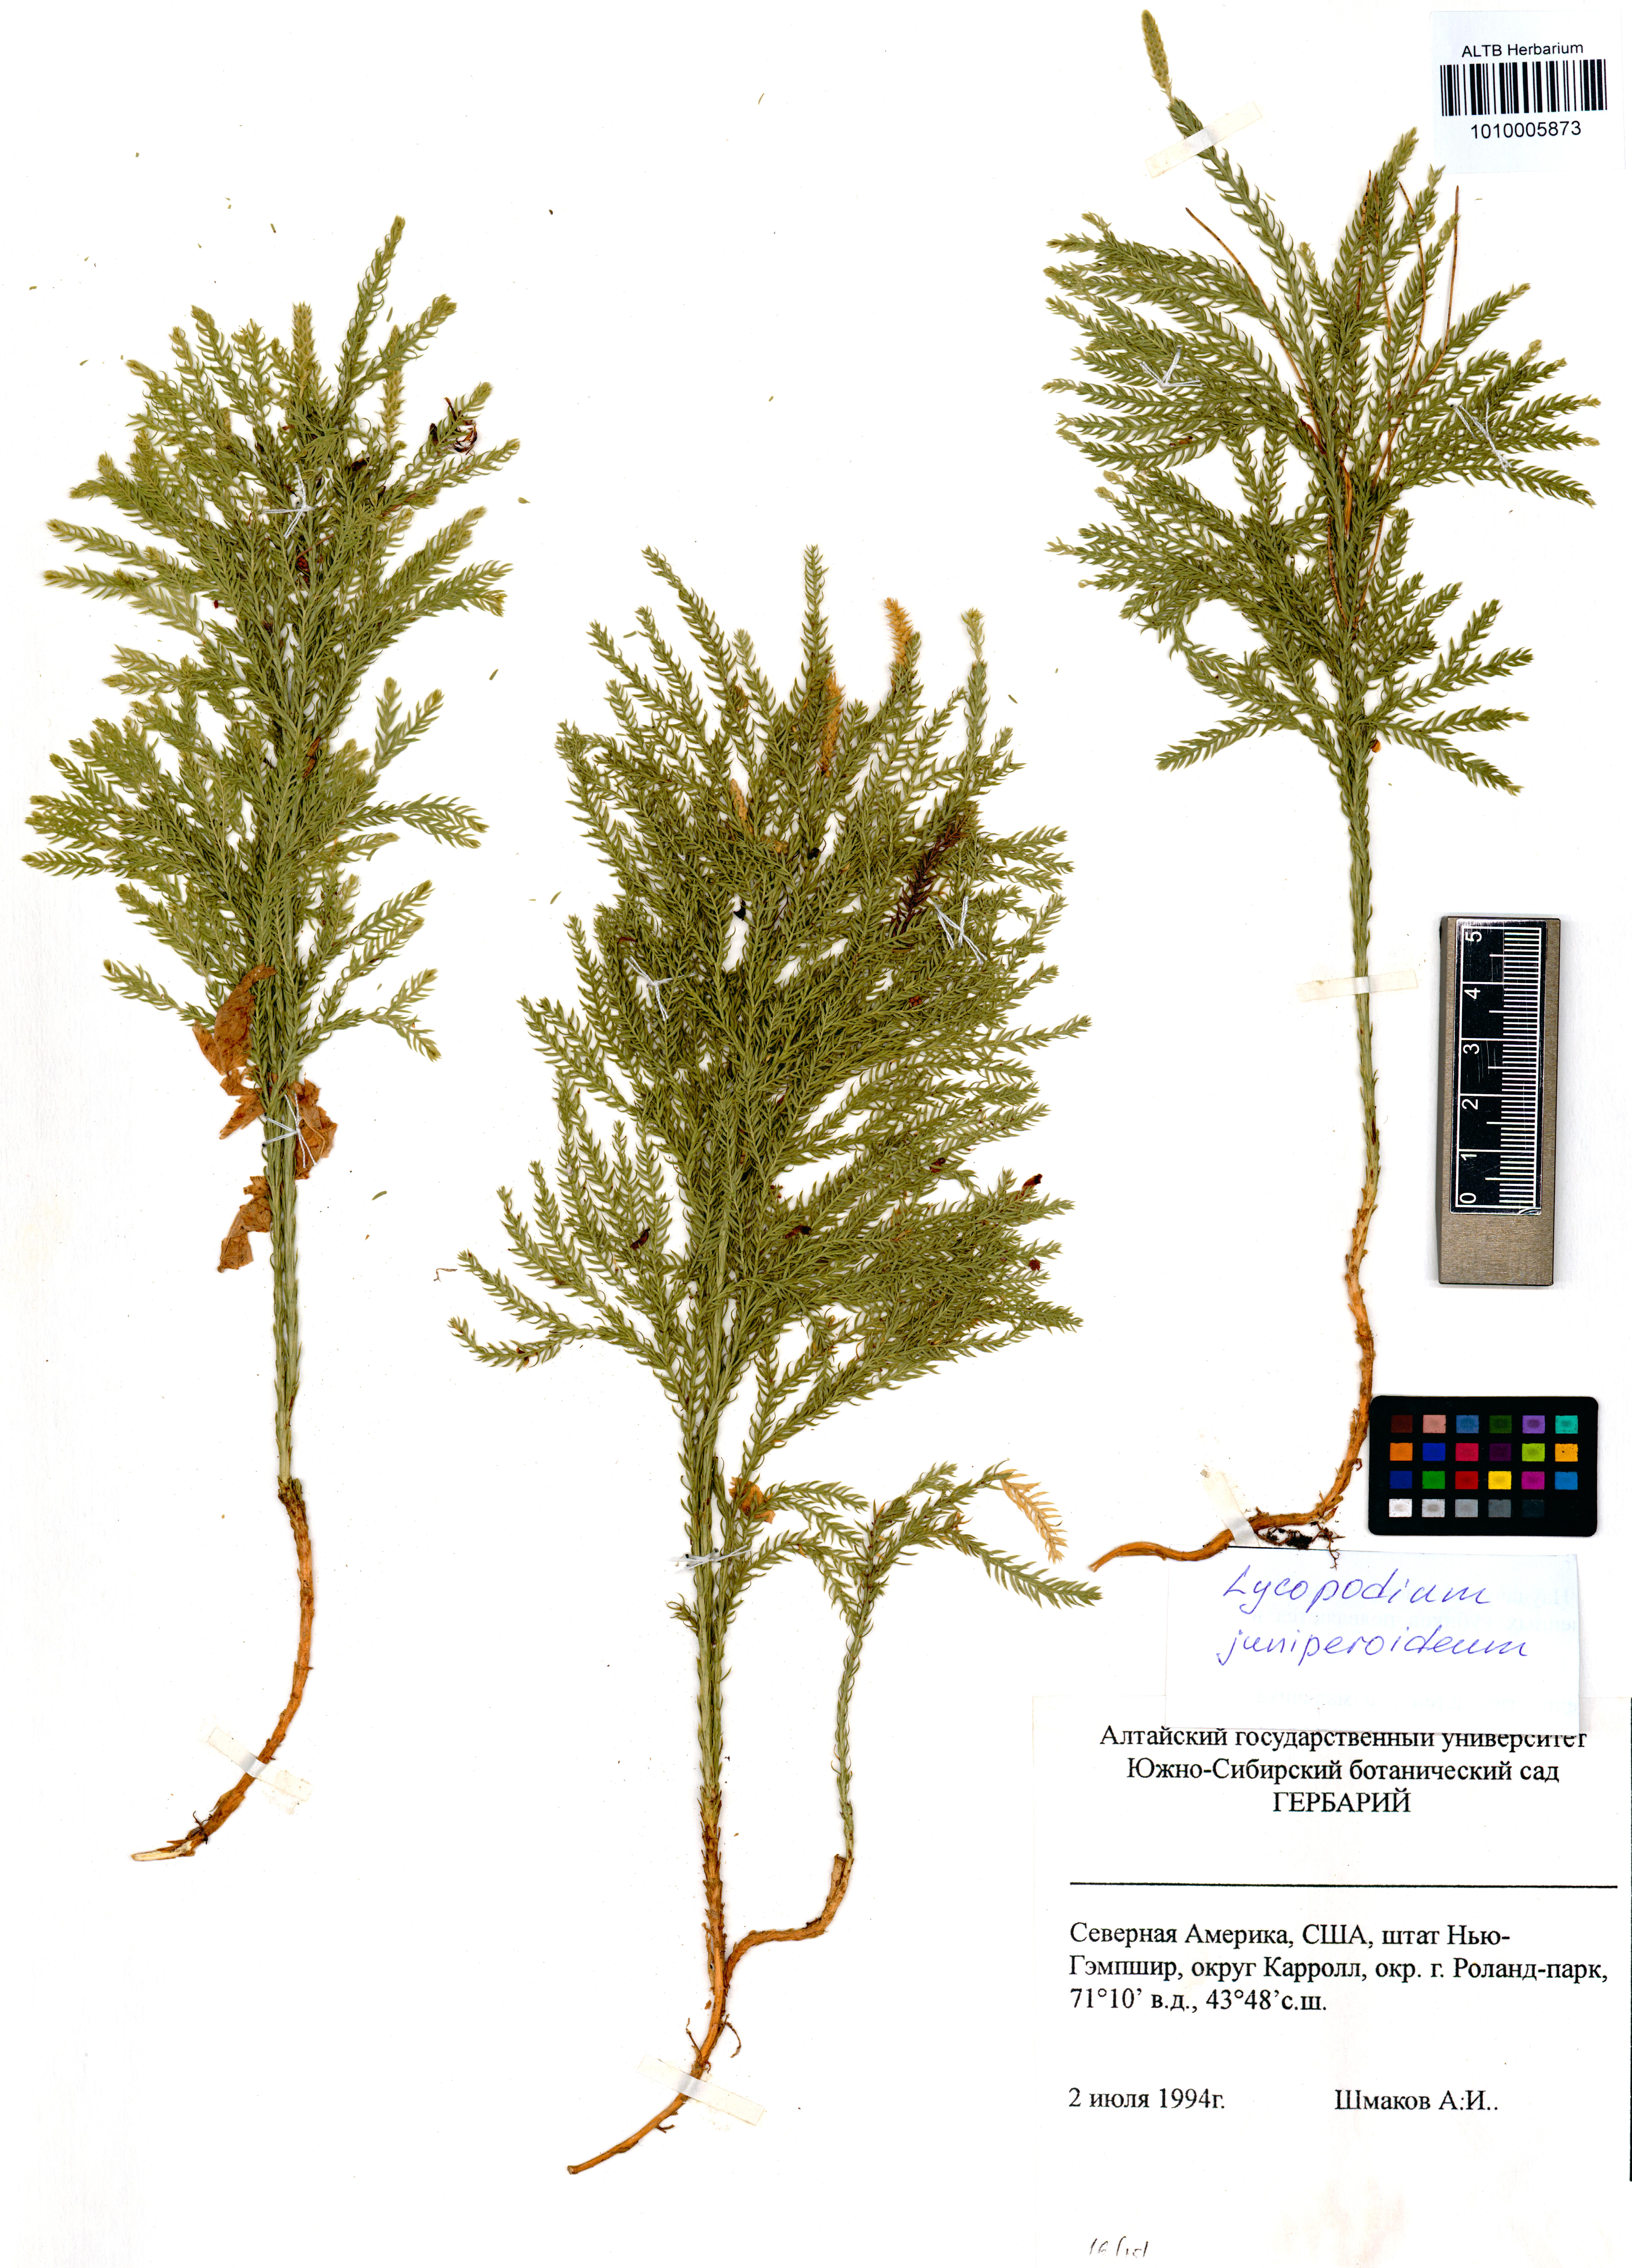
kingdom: Plantae
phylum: Tracheophyta
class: Lycopodiopsida
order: Lycopodiales
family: Lycopodiaceae
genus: Dendrolycopodium
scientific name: Dendrolycopodium juniperoideum
